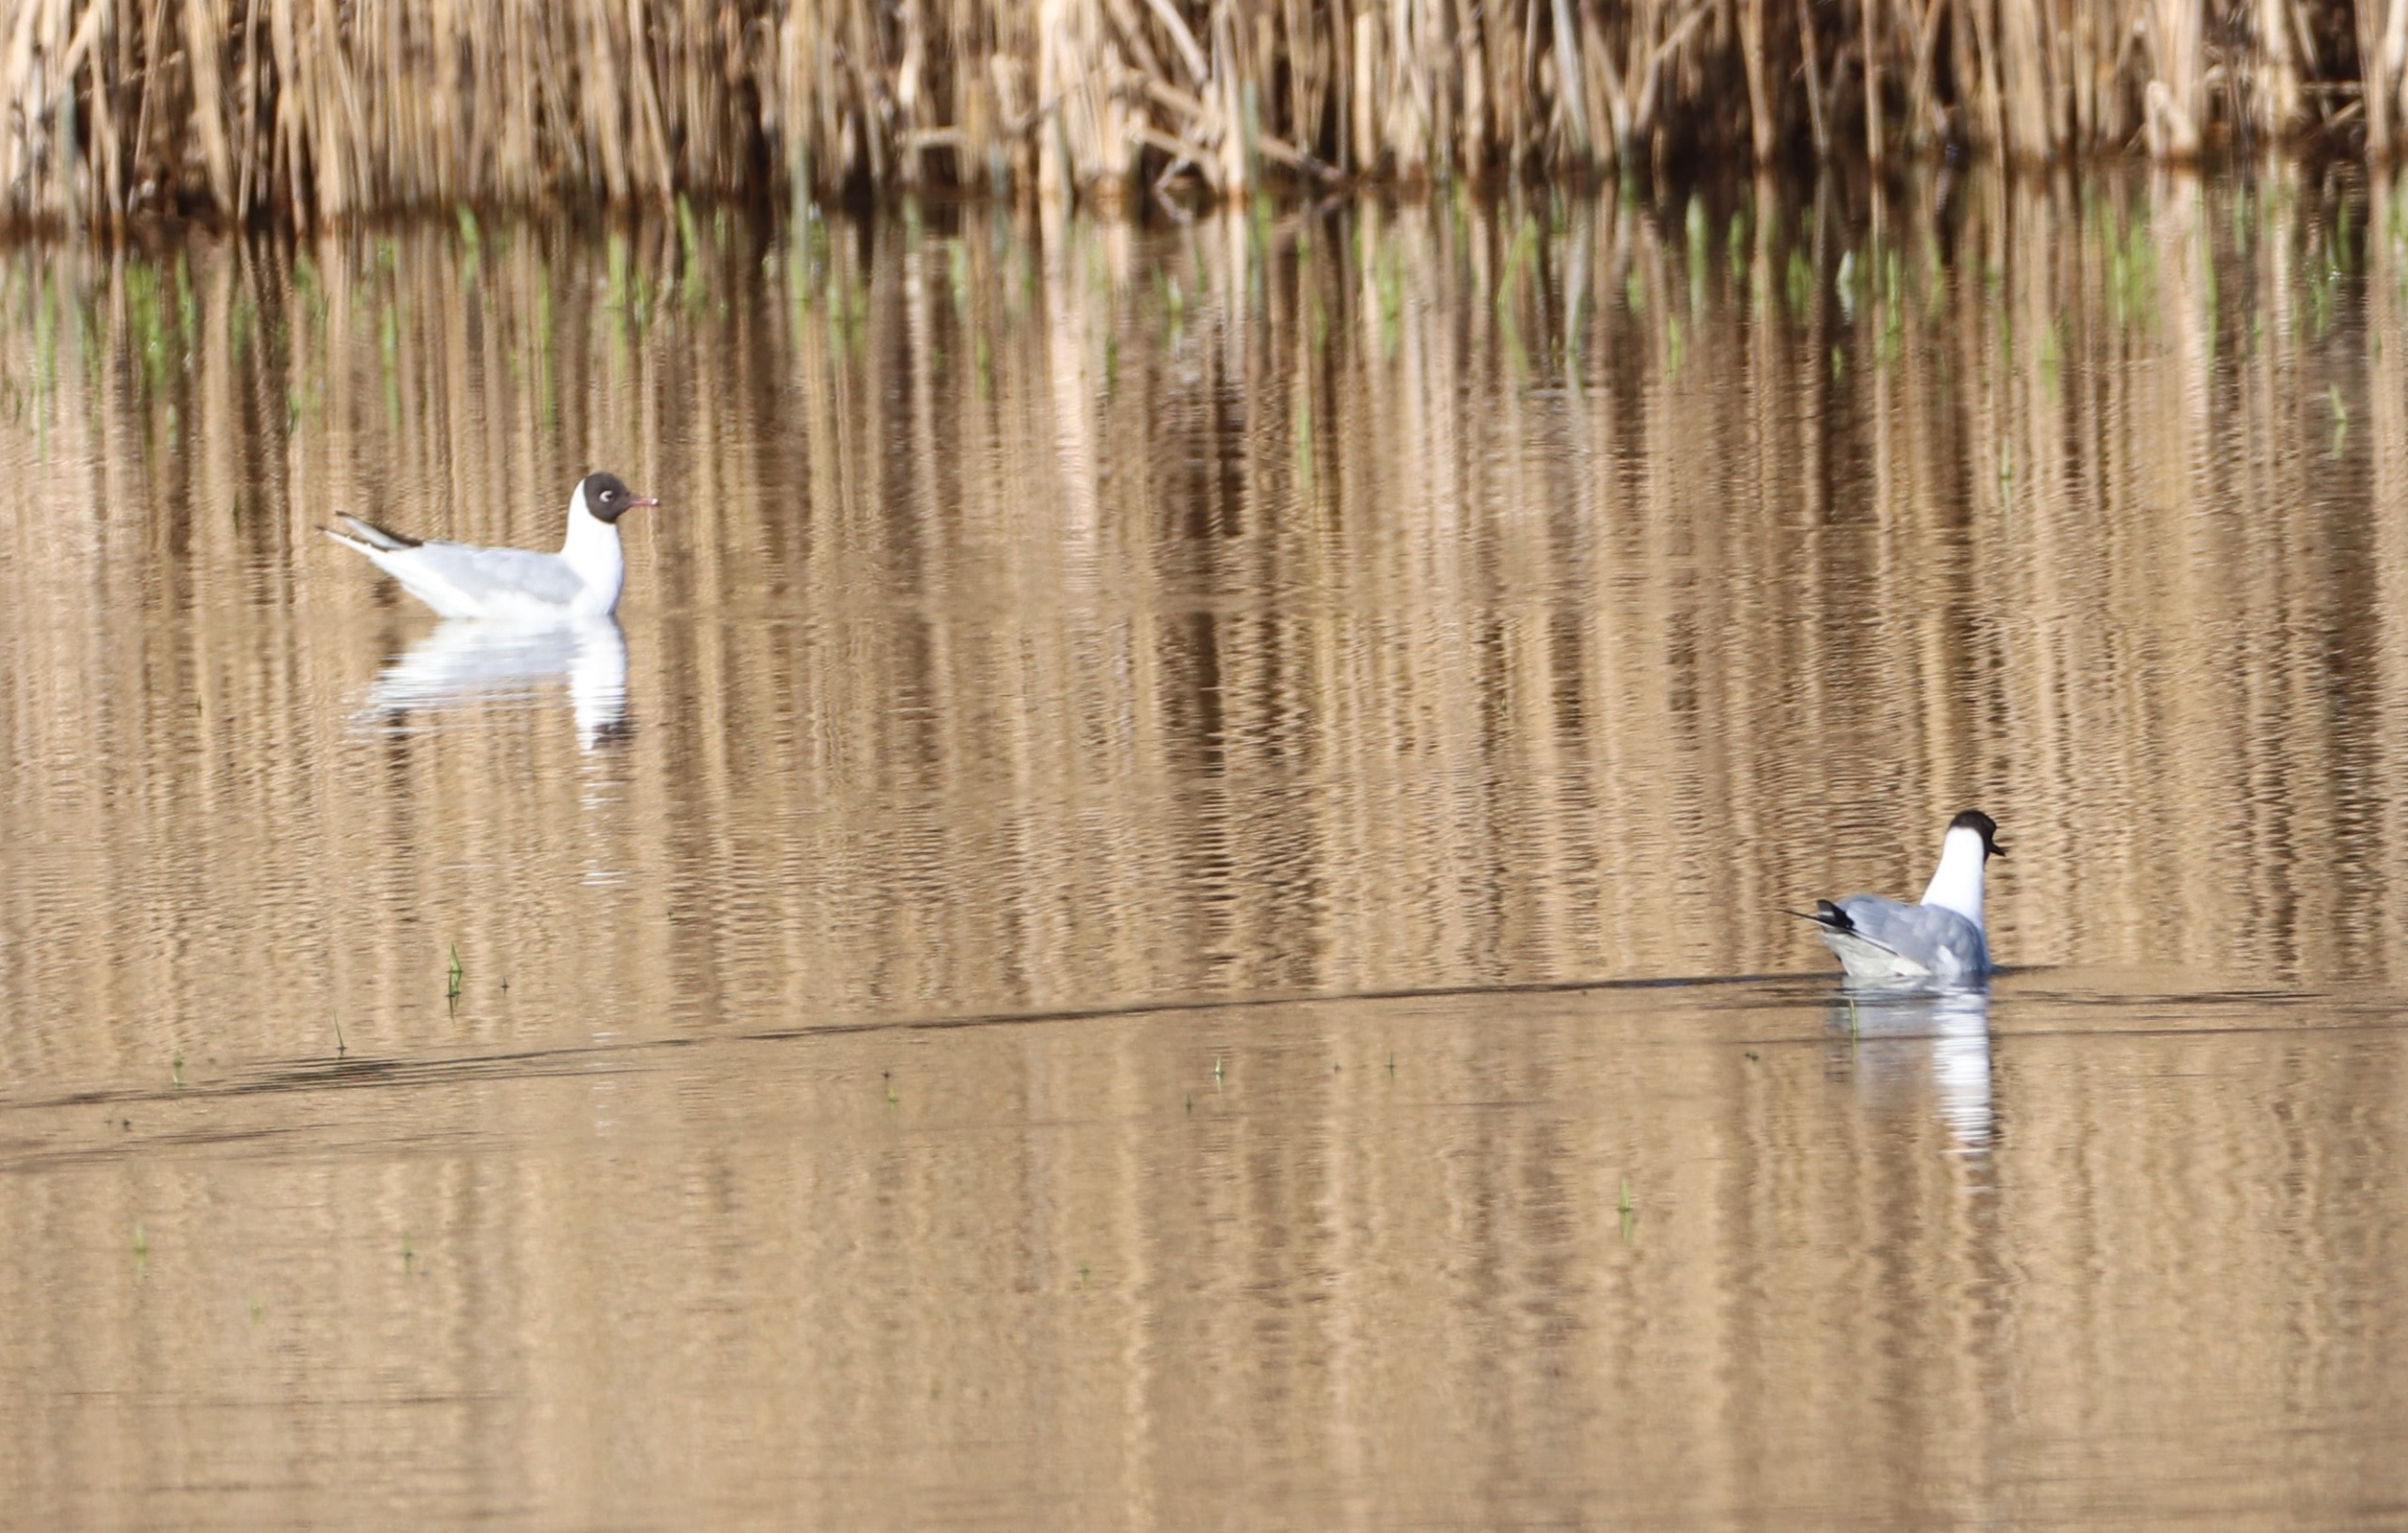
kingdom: Animalia
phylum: Chordata
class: Aves
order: Charadriiformes
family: Laridae
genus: Chroicocephalus
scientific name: Chroicocephalus ridibundus
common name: Hættemåge
